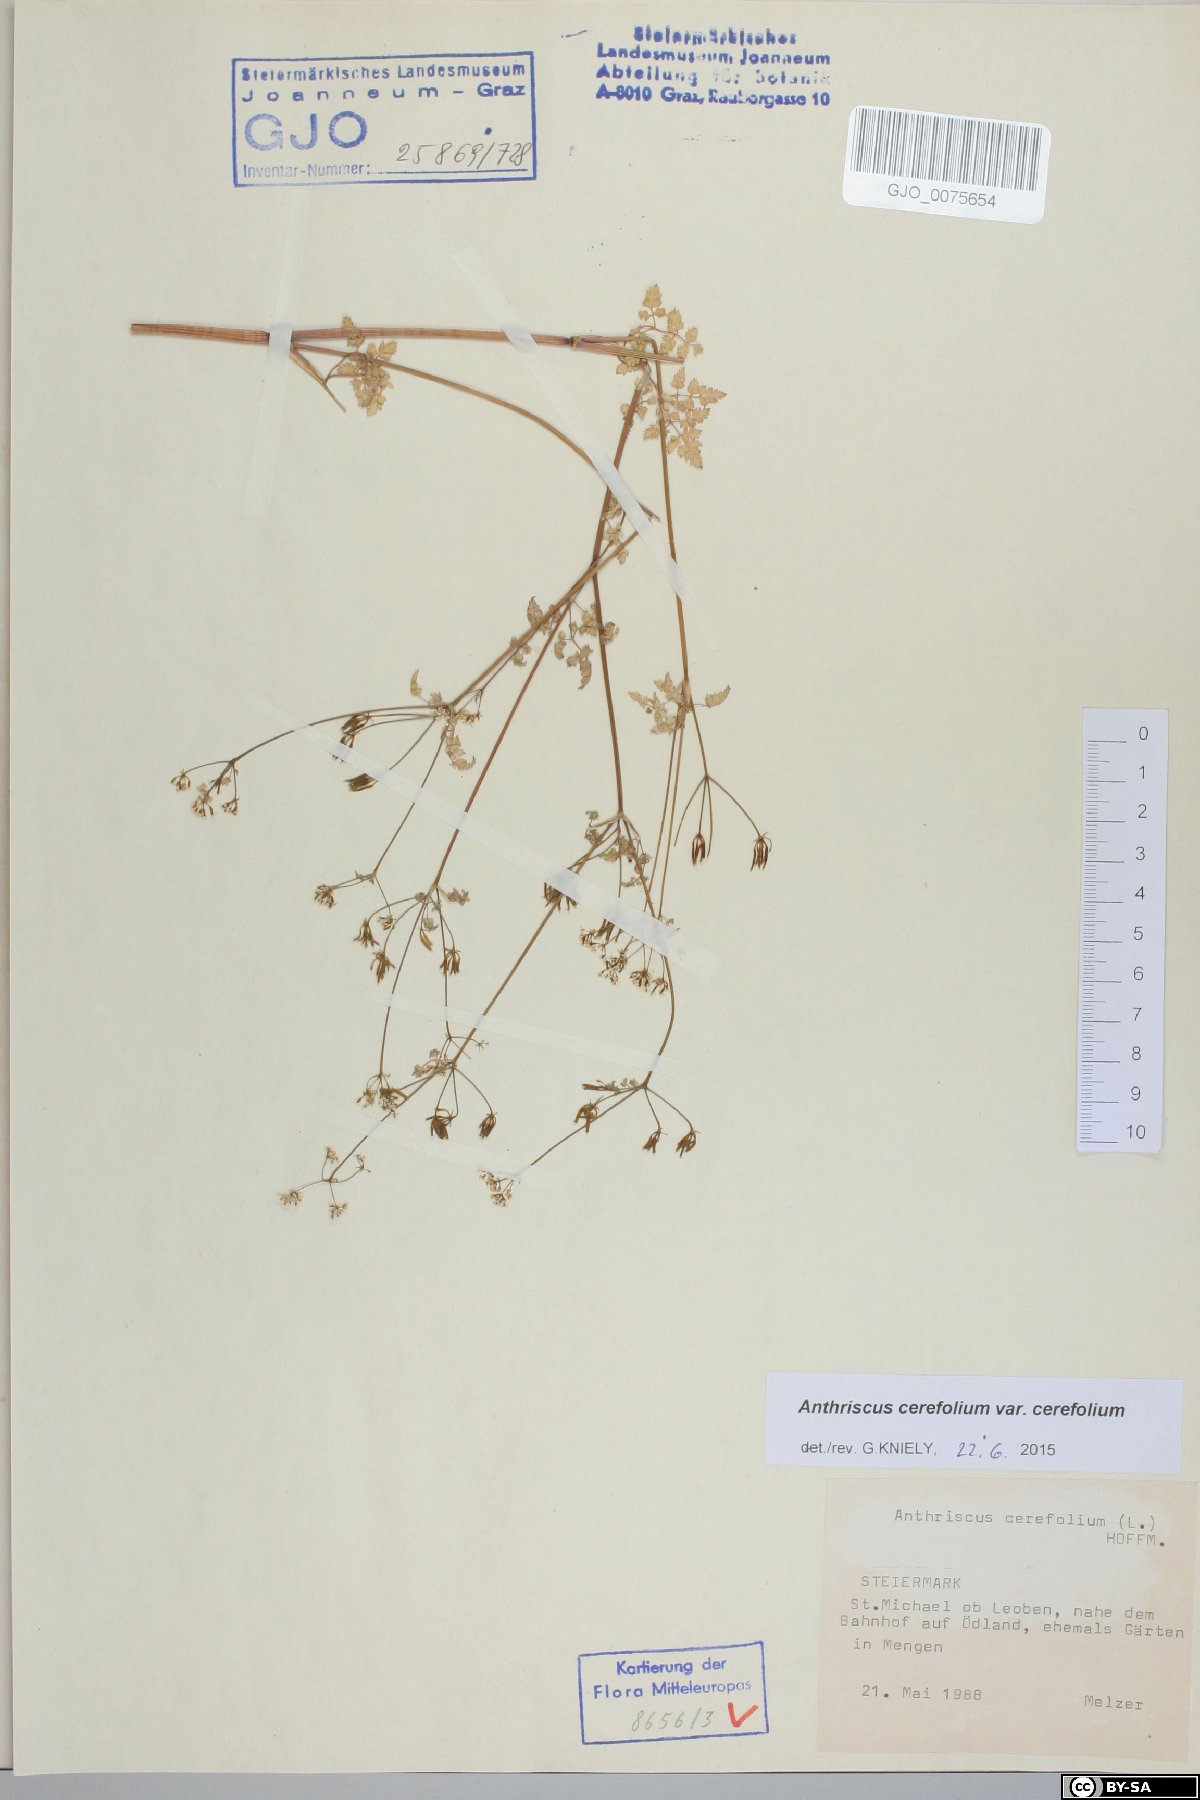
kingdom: Plantae
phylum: Tracheophyta
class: Magnoliopsida
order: Apiales
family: Apiaceae
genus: Anthriscus
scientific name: Anthriscus cerefolium
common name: Garden chervil
